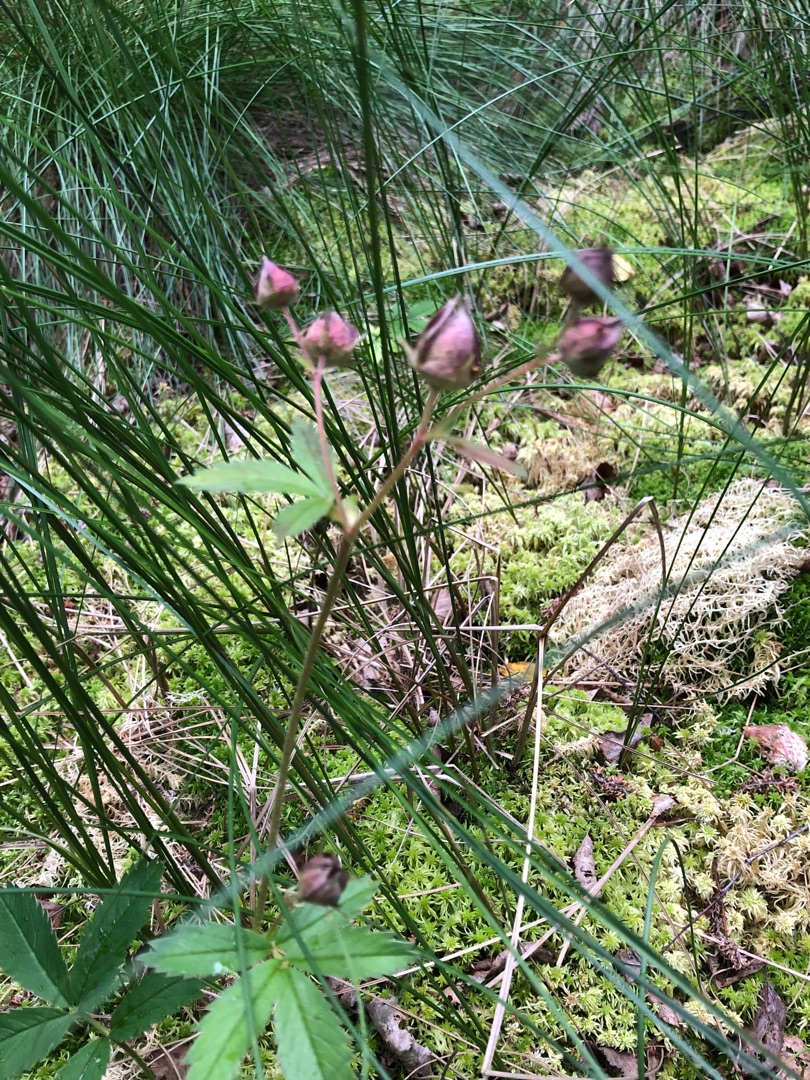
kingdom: Plantae
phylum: Tracheophyta
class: Magnoliopsida
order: Rosales
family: Rosaceae
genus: Comarum
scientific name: Comarum palustre
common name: Kragefod
